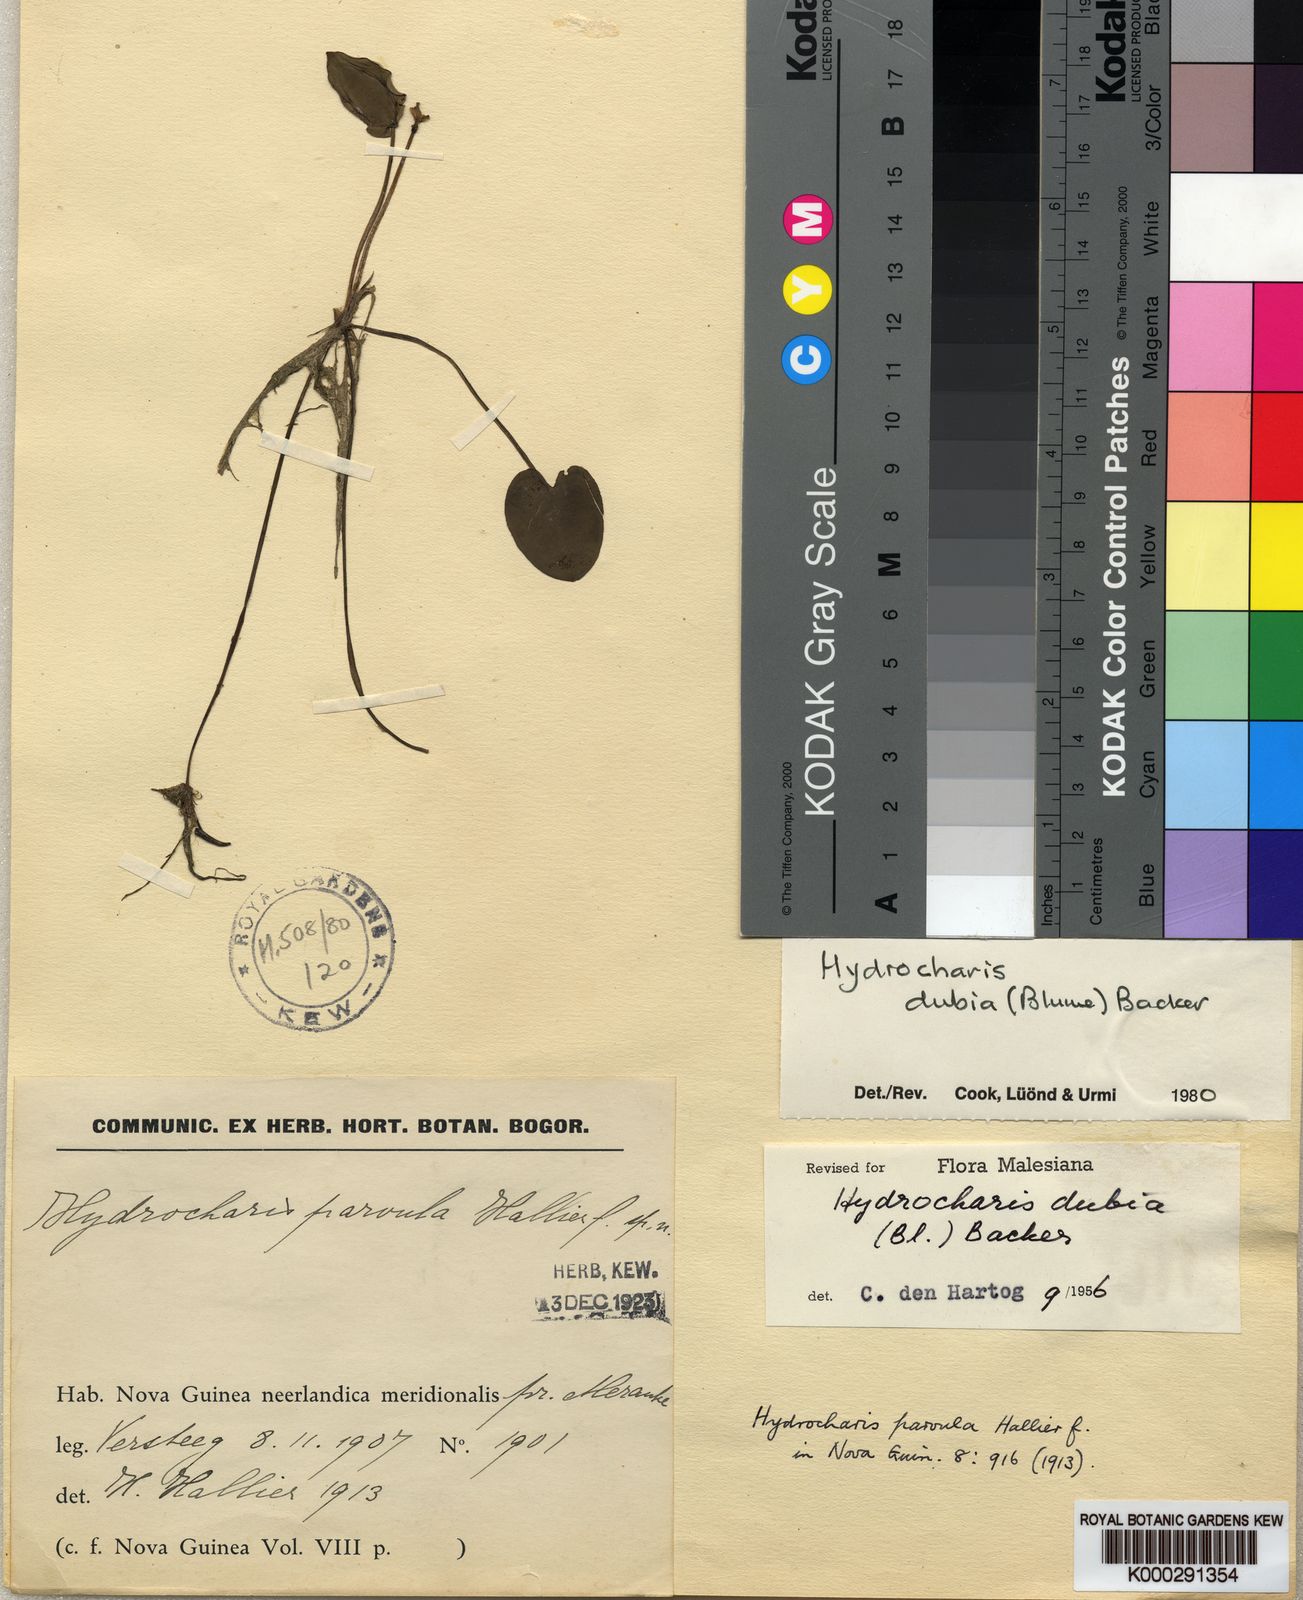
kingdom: Plantae
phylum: Tracheophyta
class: Liliopsida
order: Alismatales
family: Hydrocharitaceae
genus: Hydrocharis
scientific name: Hydrocharis dubia
